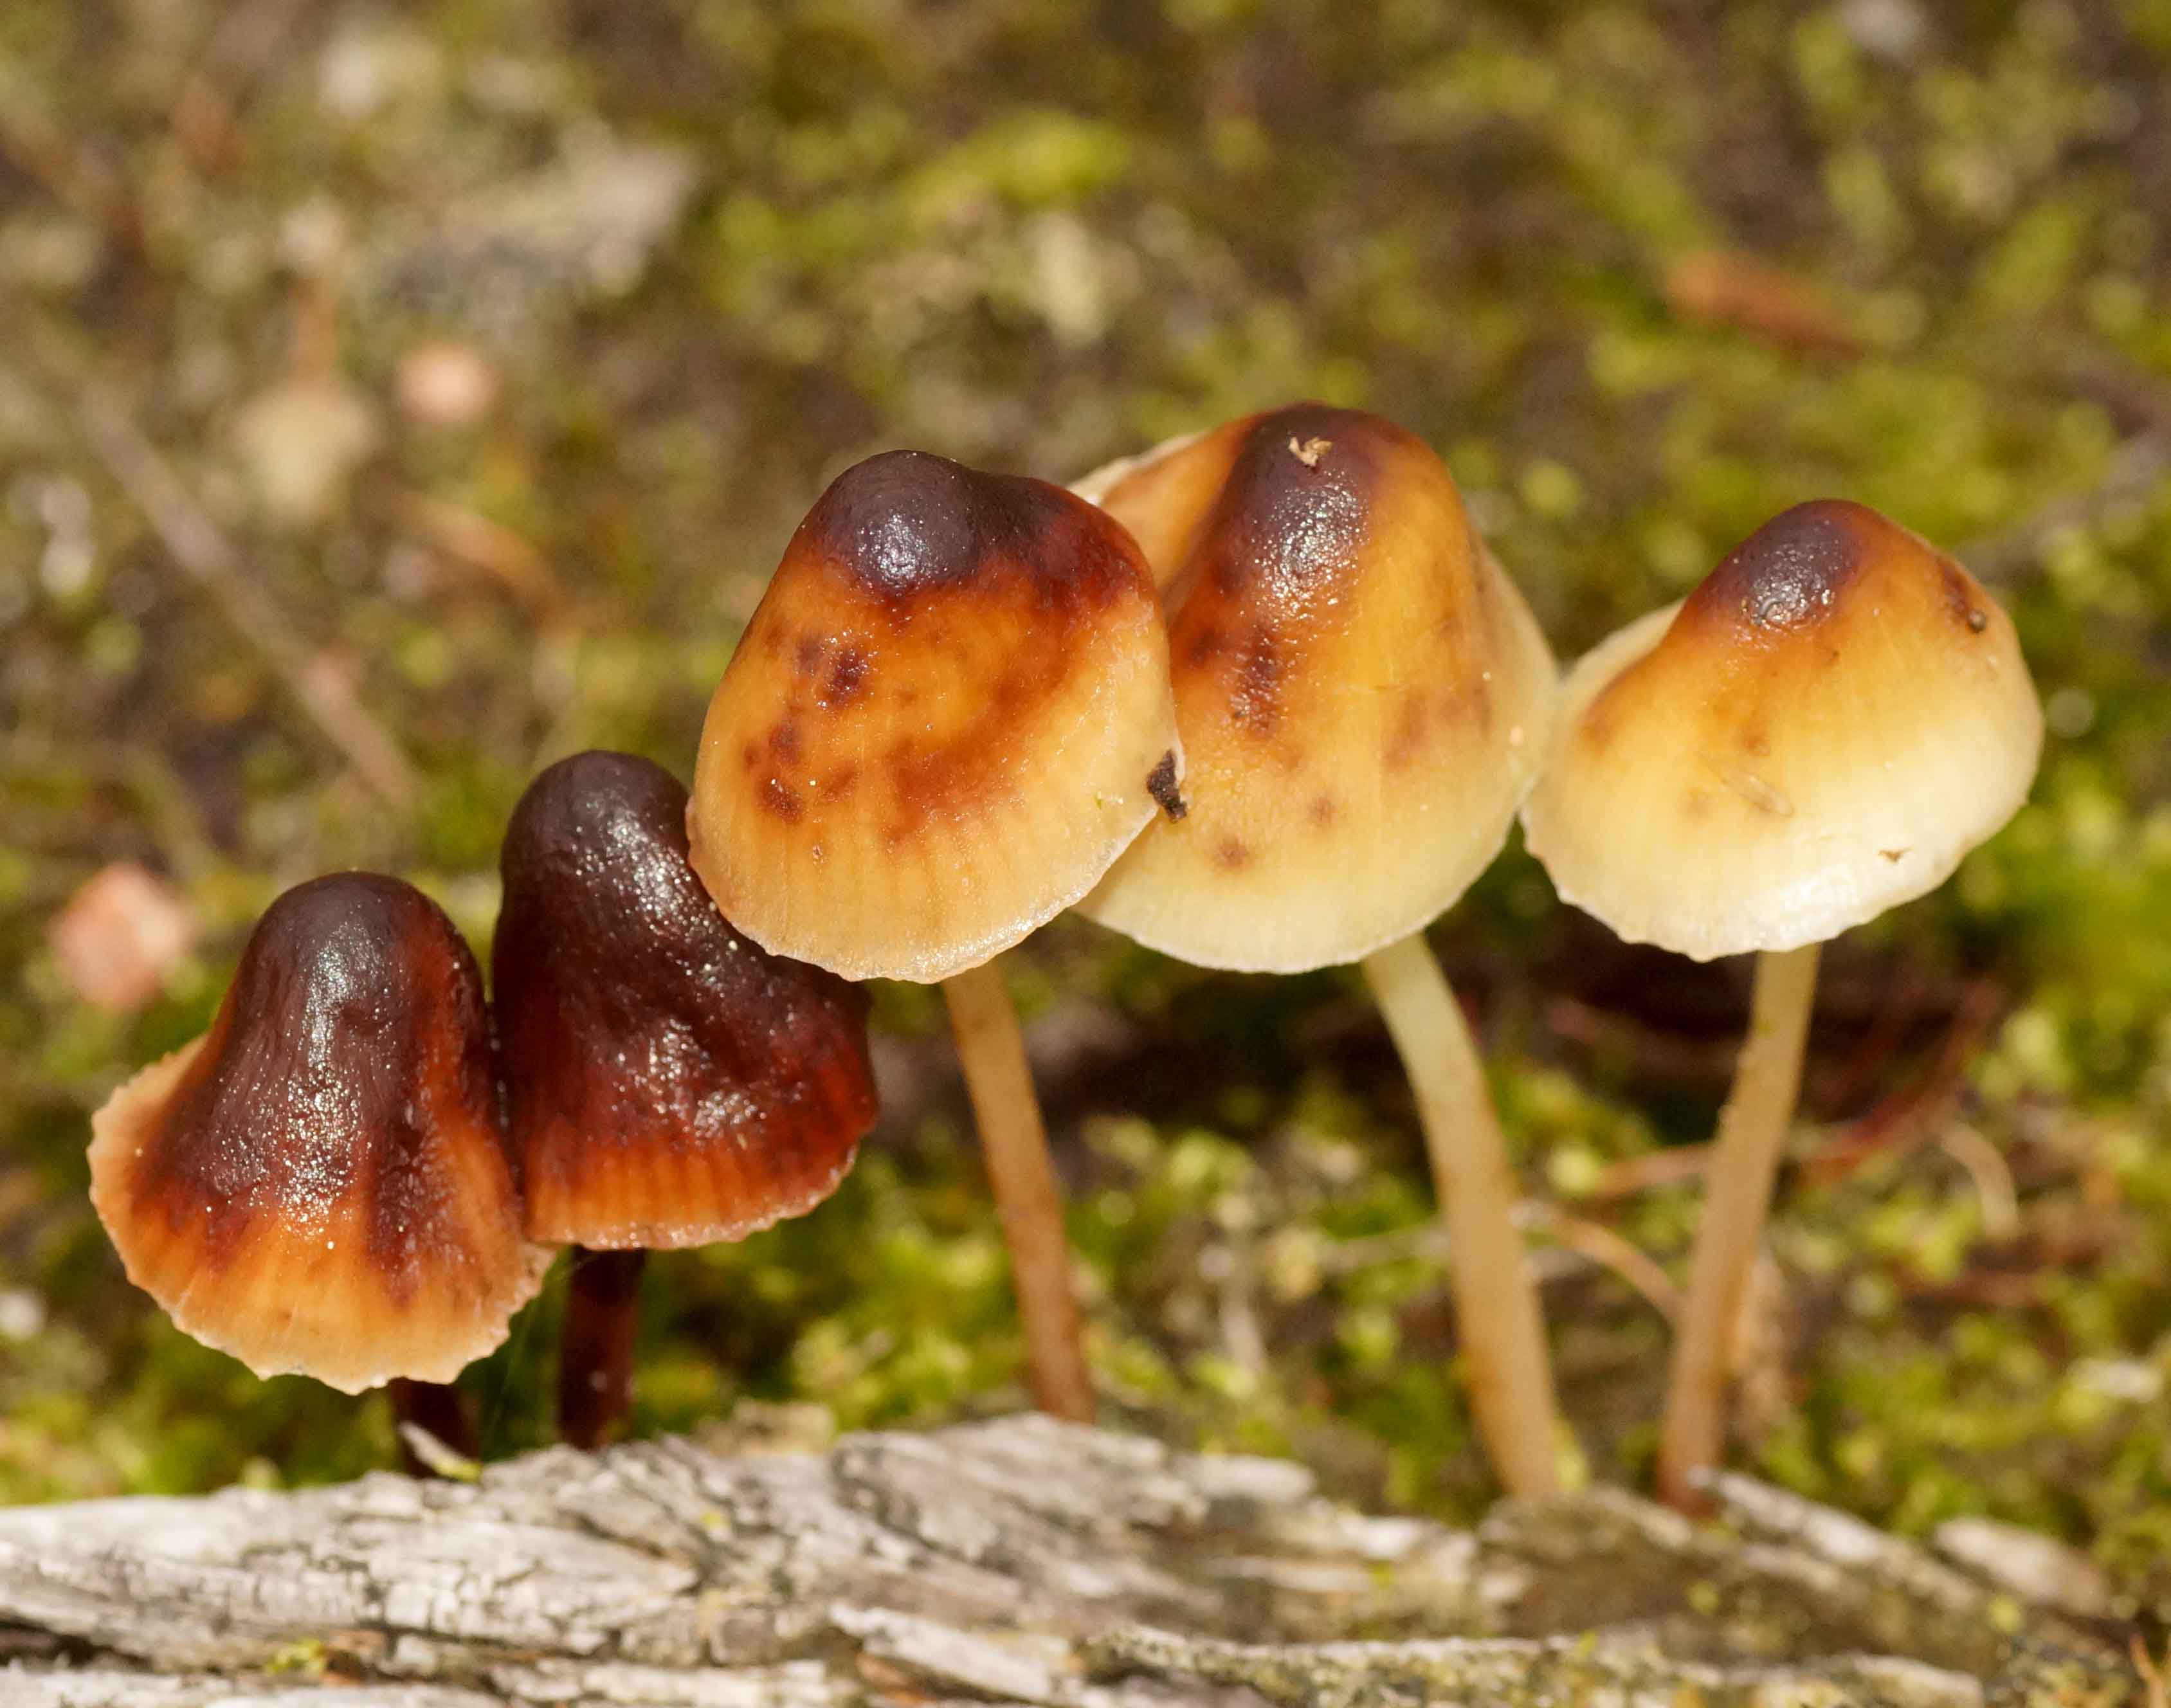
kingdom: Fungi
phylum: Basidiomycota
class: Agaricomycetes
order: Agaricales
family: Mycenaceae
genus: Mycena
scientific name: Mycena epipterygia
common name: gulstokket huesvamp
